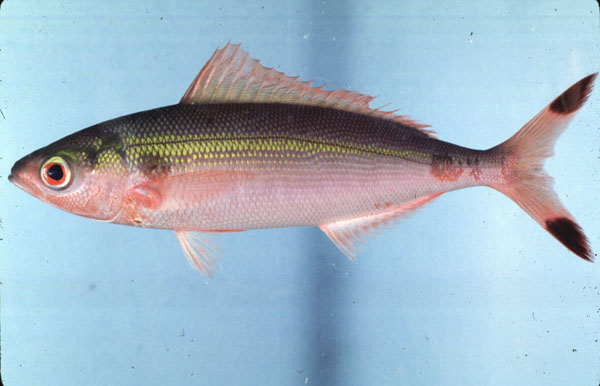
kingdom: Animalia
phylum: Chordata
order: Perciformes
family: Caesionidae
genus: Pterocaesio
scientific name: Pterocaesio chrysozona
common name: Goldband fusilier
